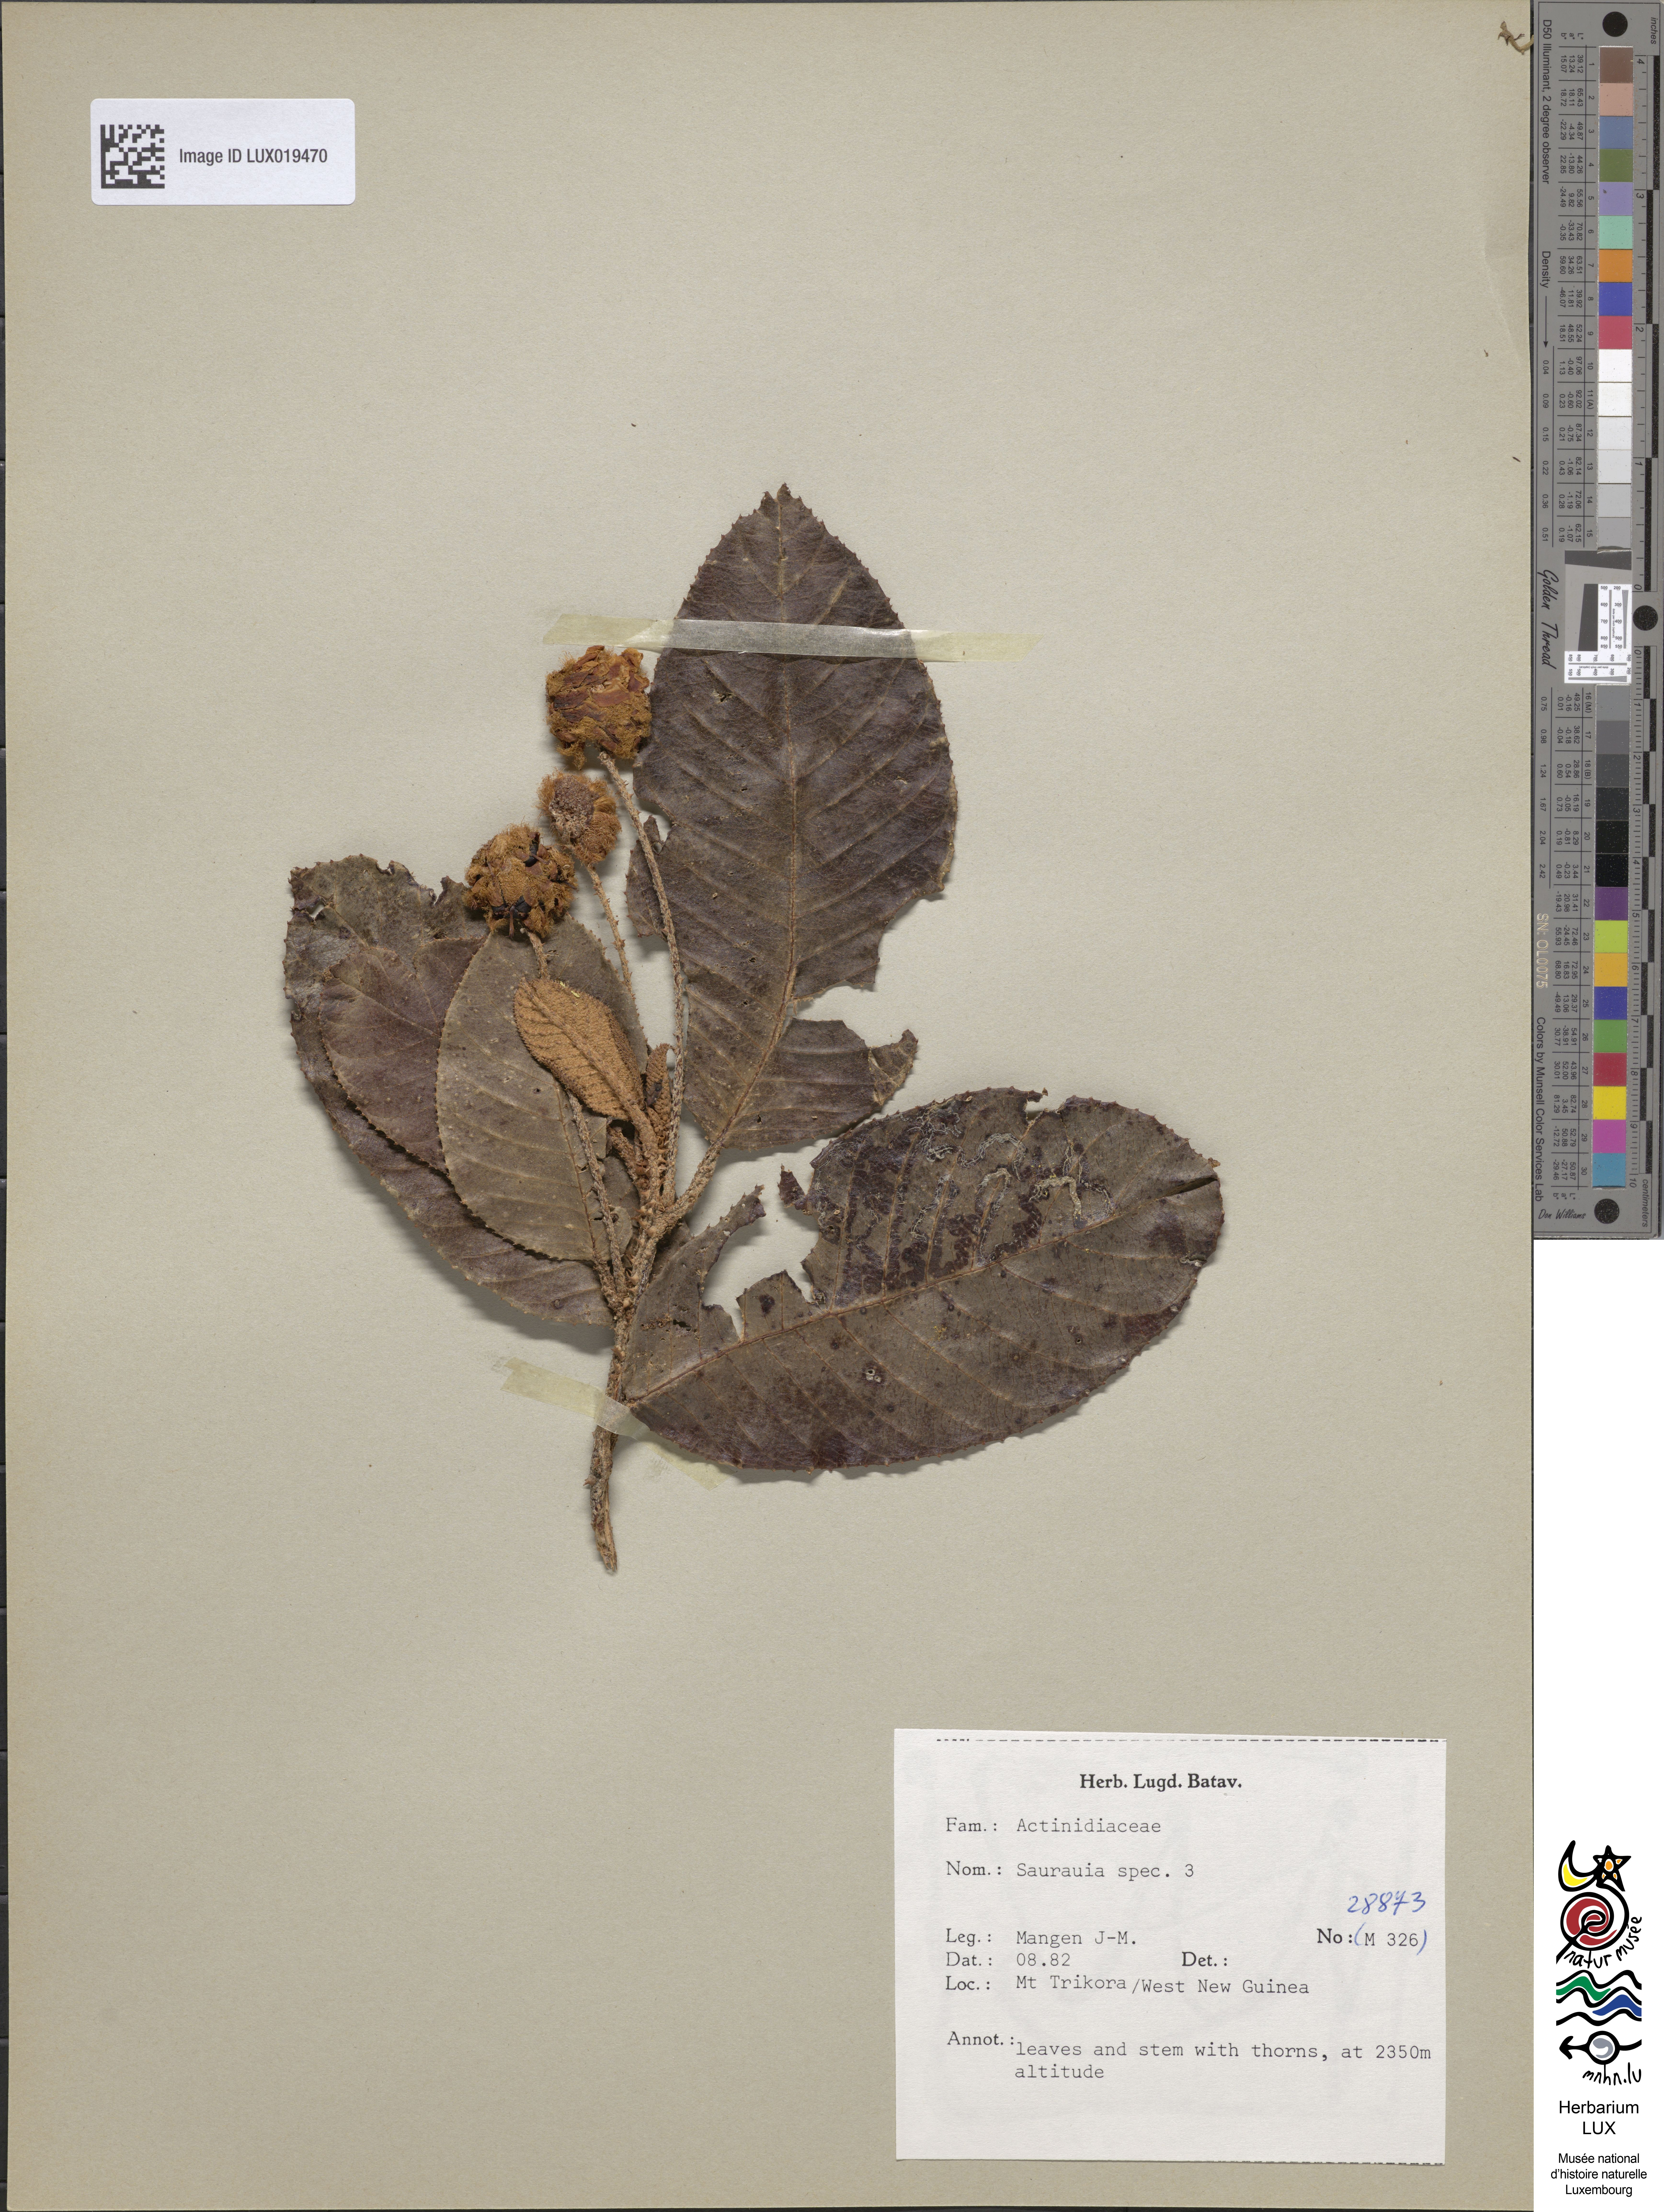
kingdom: Plantae
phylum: Tracheophyta
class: Magnoliopsida
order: Ericales
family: Actinidiaceae
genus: Saurauia
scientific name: Saurauia
